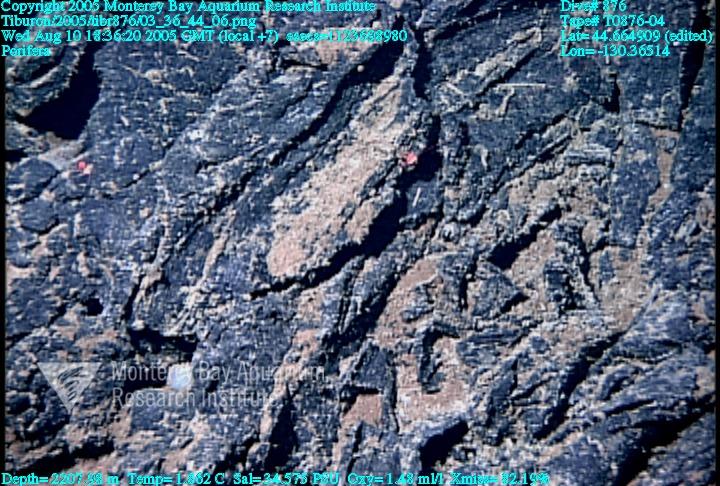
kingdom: Animalia
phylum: Porifera
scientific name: Porifera
